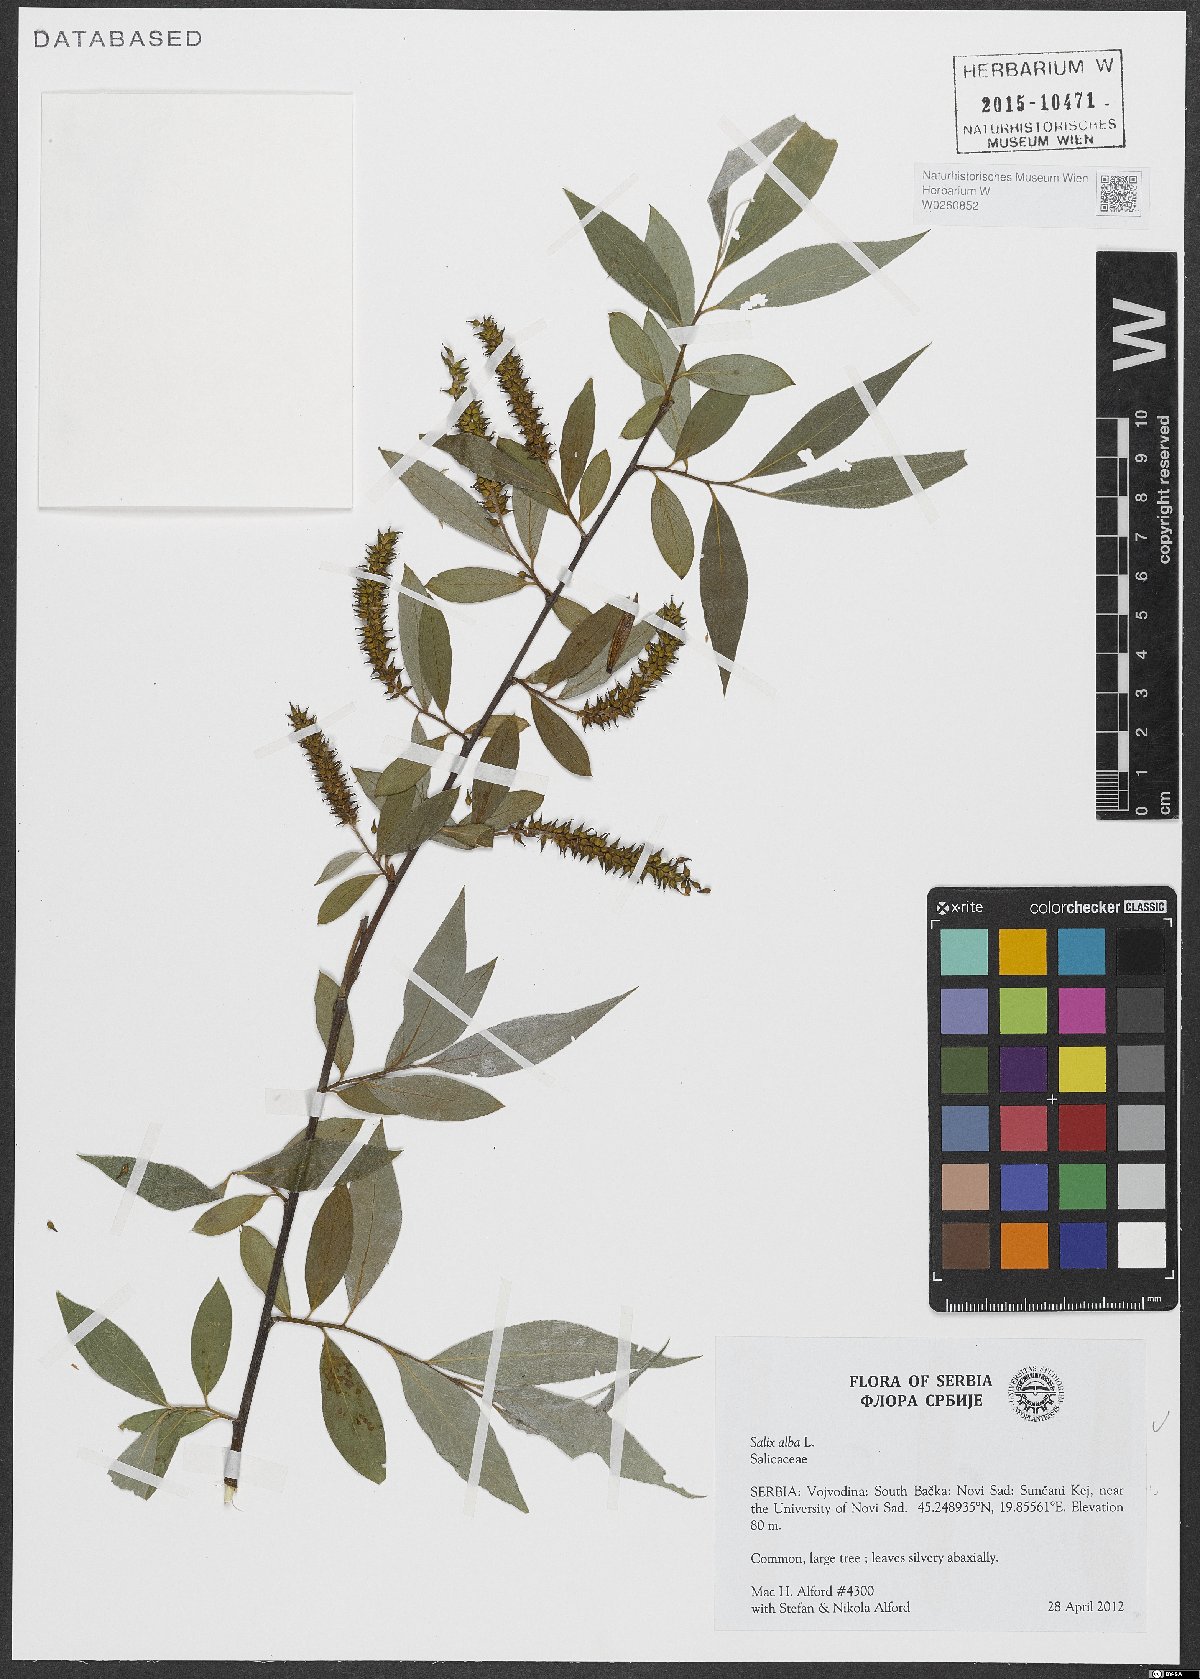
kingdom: Plantae
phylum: Tracheophyta
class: Magnoliopsida
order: Malpighiales
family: Salicaceae
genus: Salix
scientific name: Salix alba
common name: White willow
